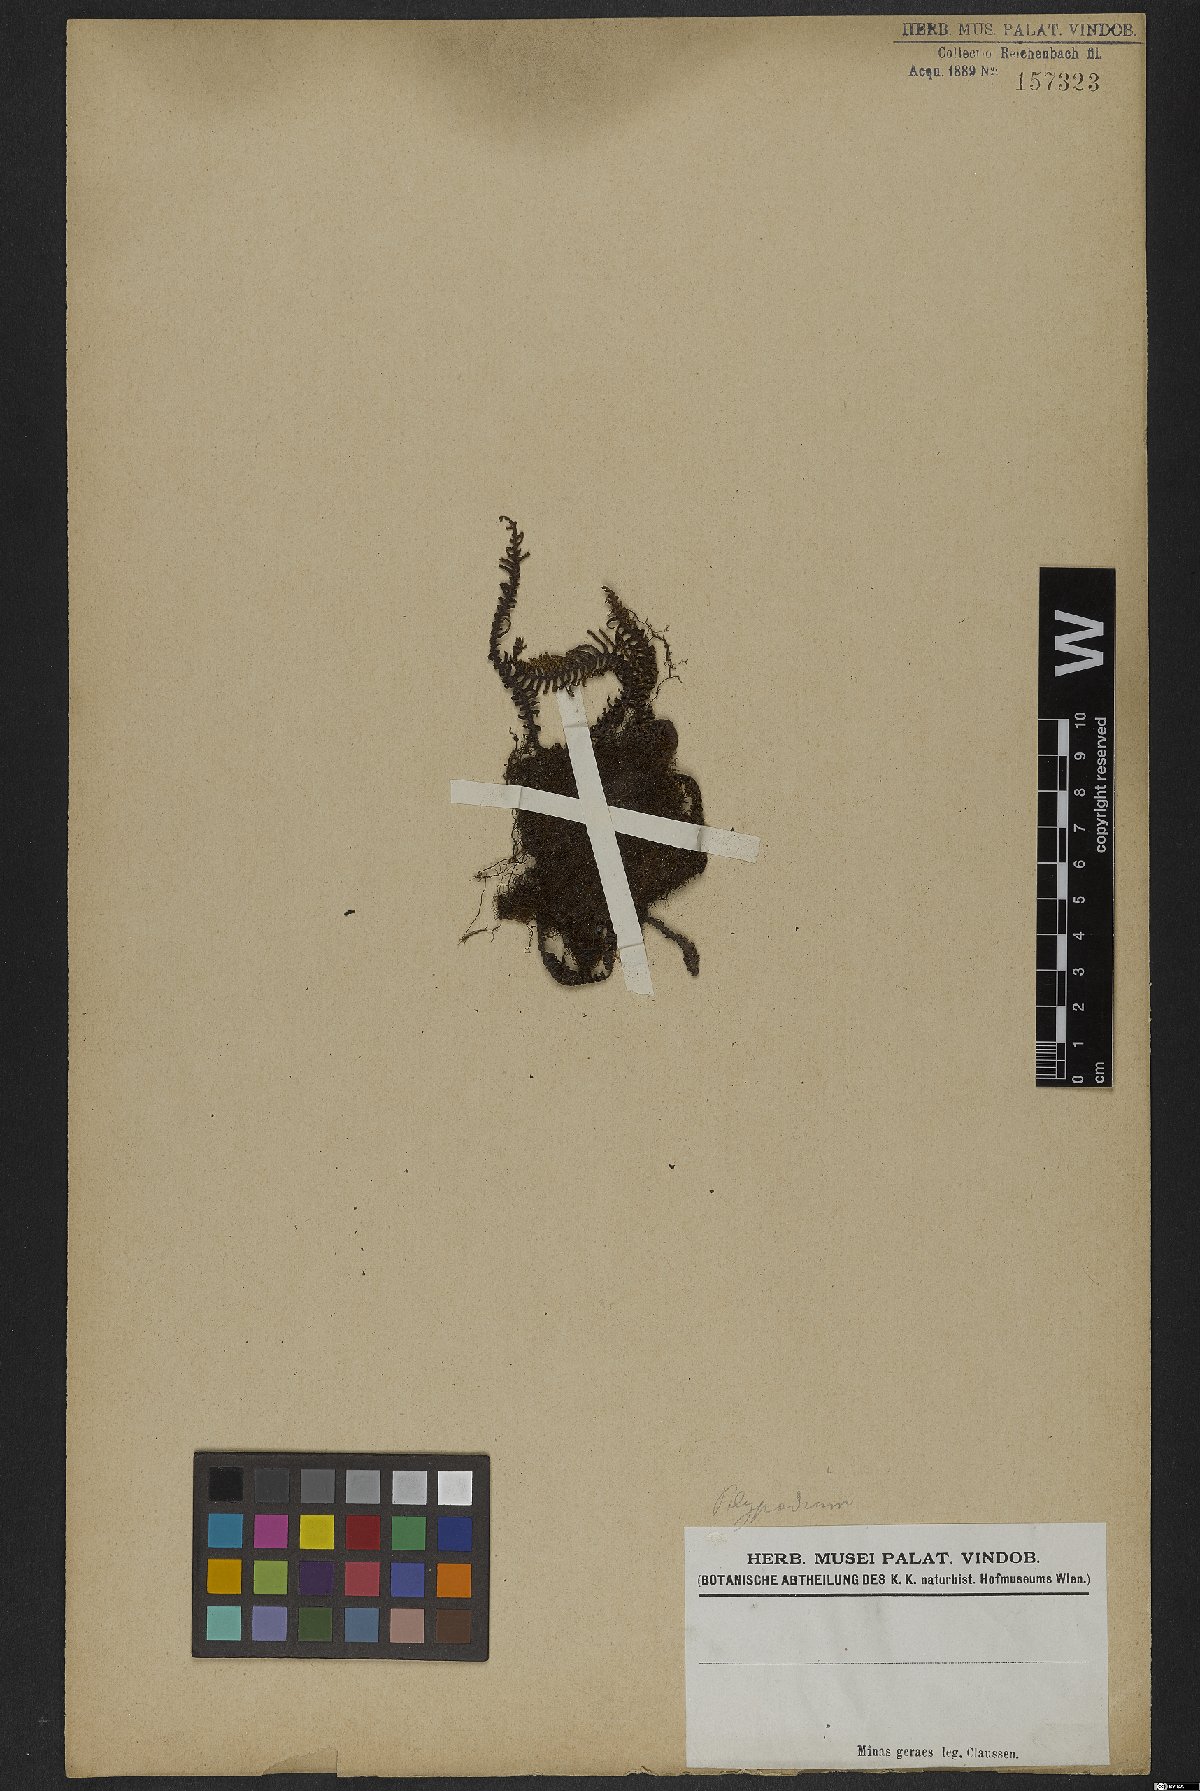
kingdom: Plantae
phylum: Tracheophyta
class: Polypodiopsida
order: Polypodiales
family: Polypodiaceae
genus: Polypodium
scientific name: Polypodium
